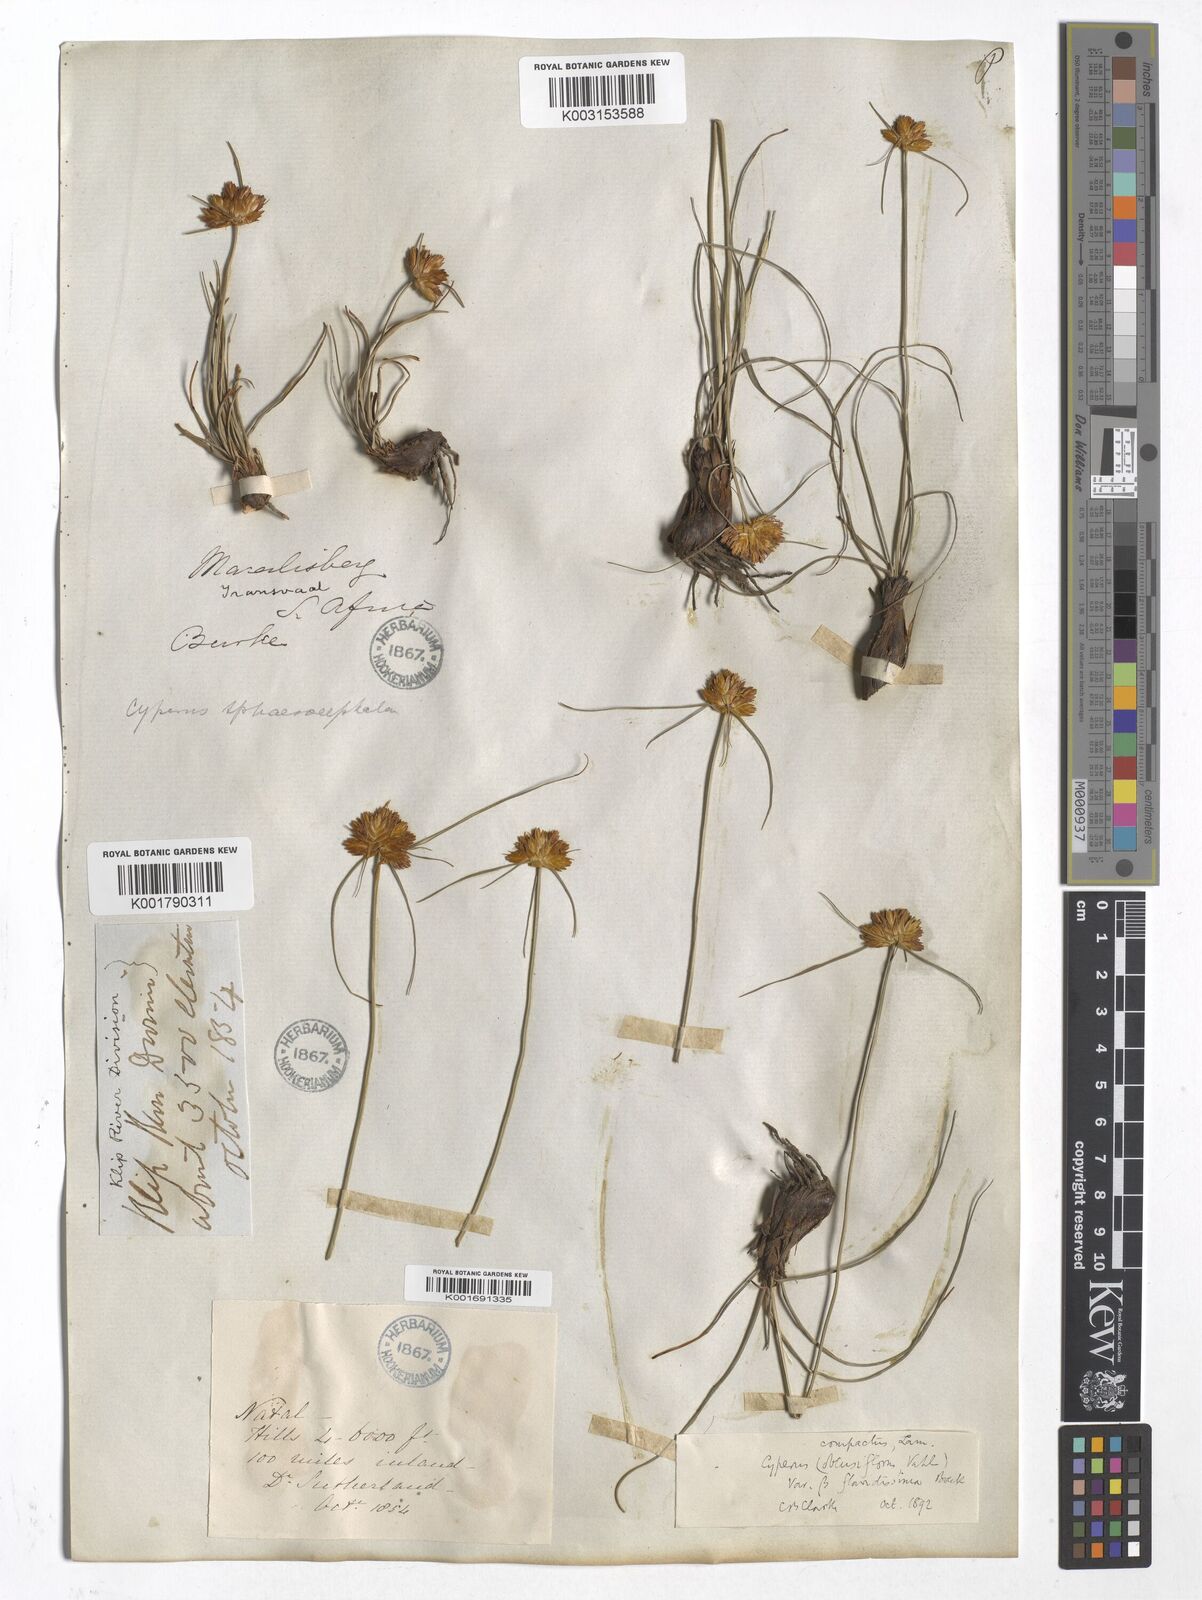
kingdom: Plantae
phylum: Tracheophyta
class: Liliopsida
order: Poales
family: Cyperaceae
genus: Cyperus
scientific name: Cyperus
